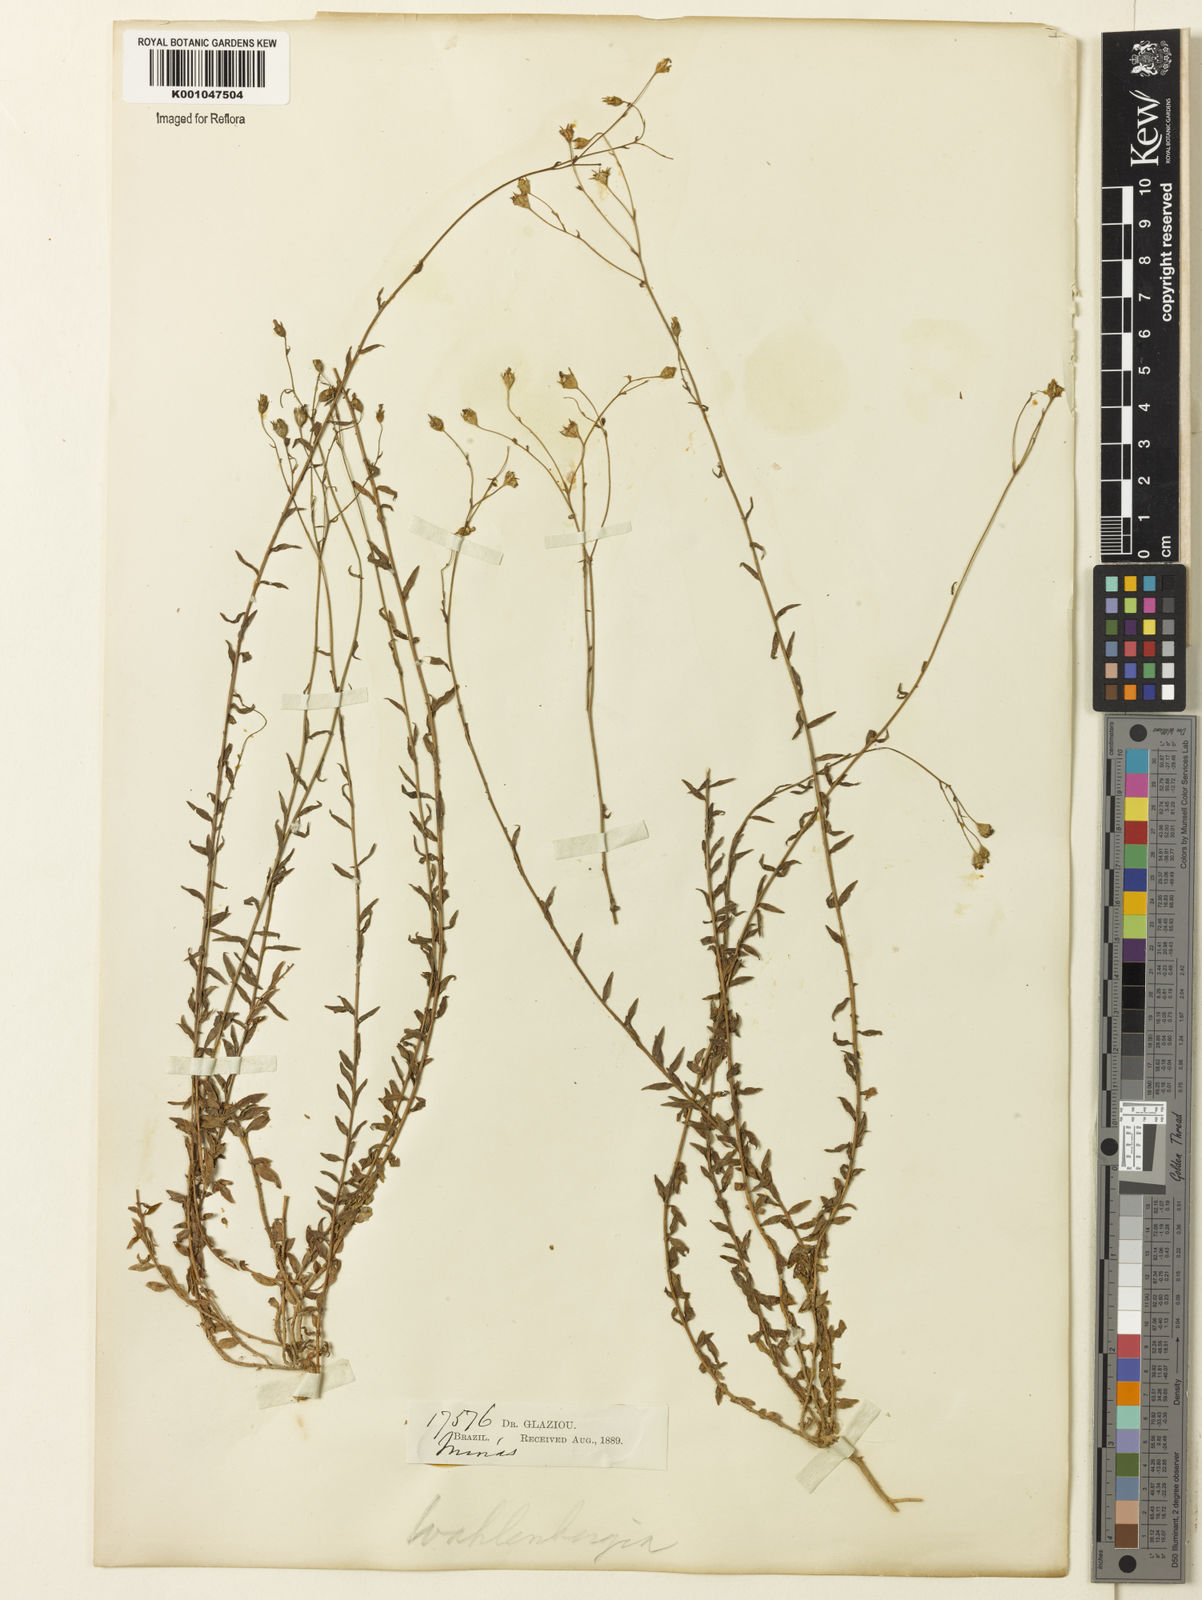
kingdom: Plantae
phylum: Tracheophyta
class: Magnoliopsida
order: Asterales
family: Campanulaceae
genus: Wahlenbergia
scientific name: Wahlenbergia
